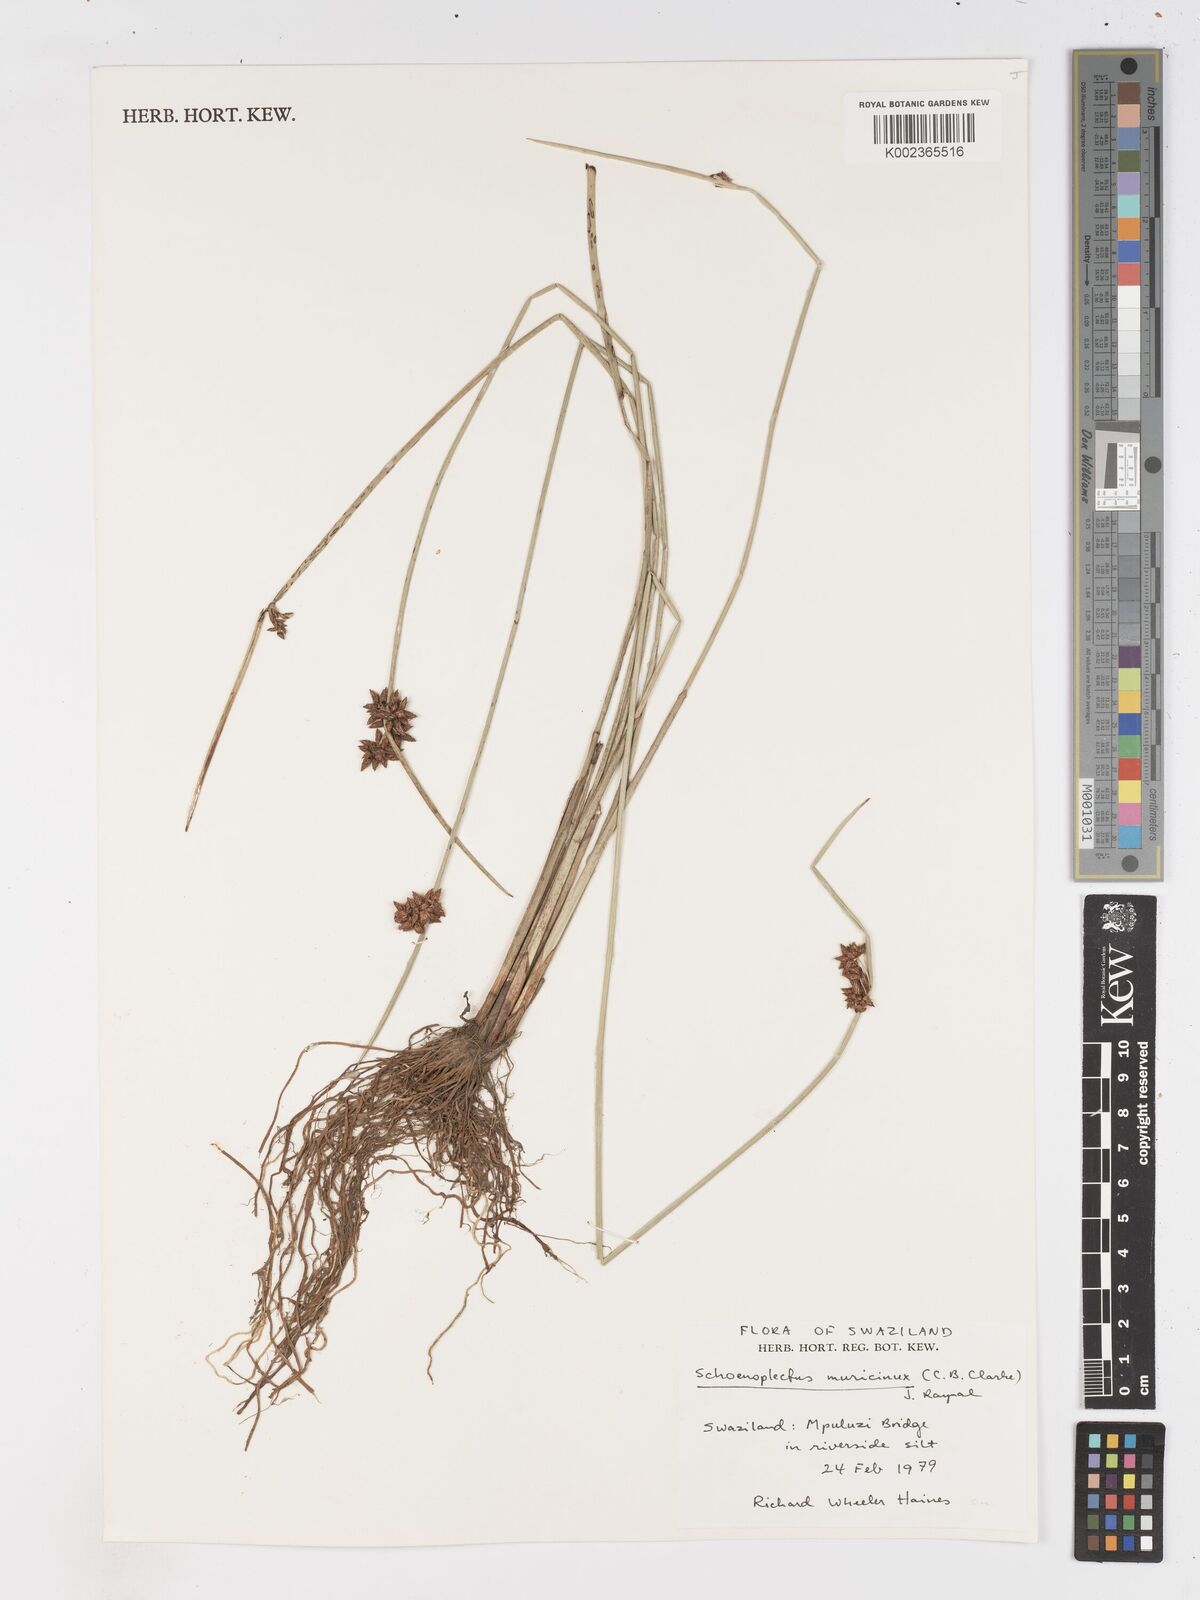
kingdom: Plantae
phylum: Tracheophyta
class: Liliopsida
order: Poales
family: Cyperaceae
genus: Schoenoplectiella
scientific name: Schoenoplectiella muricinux
